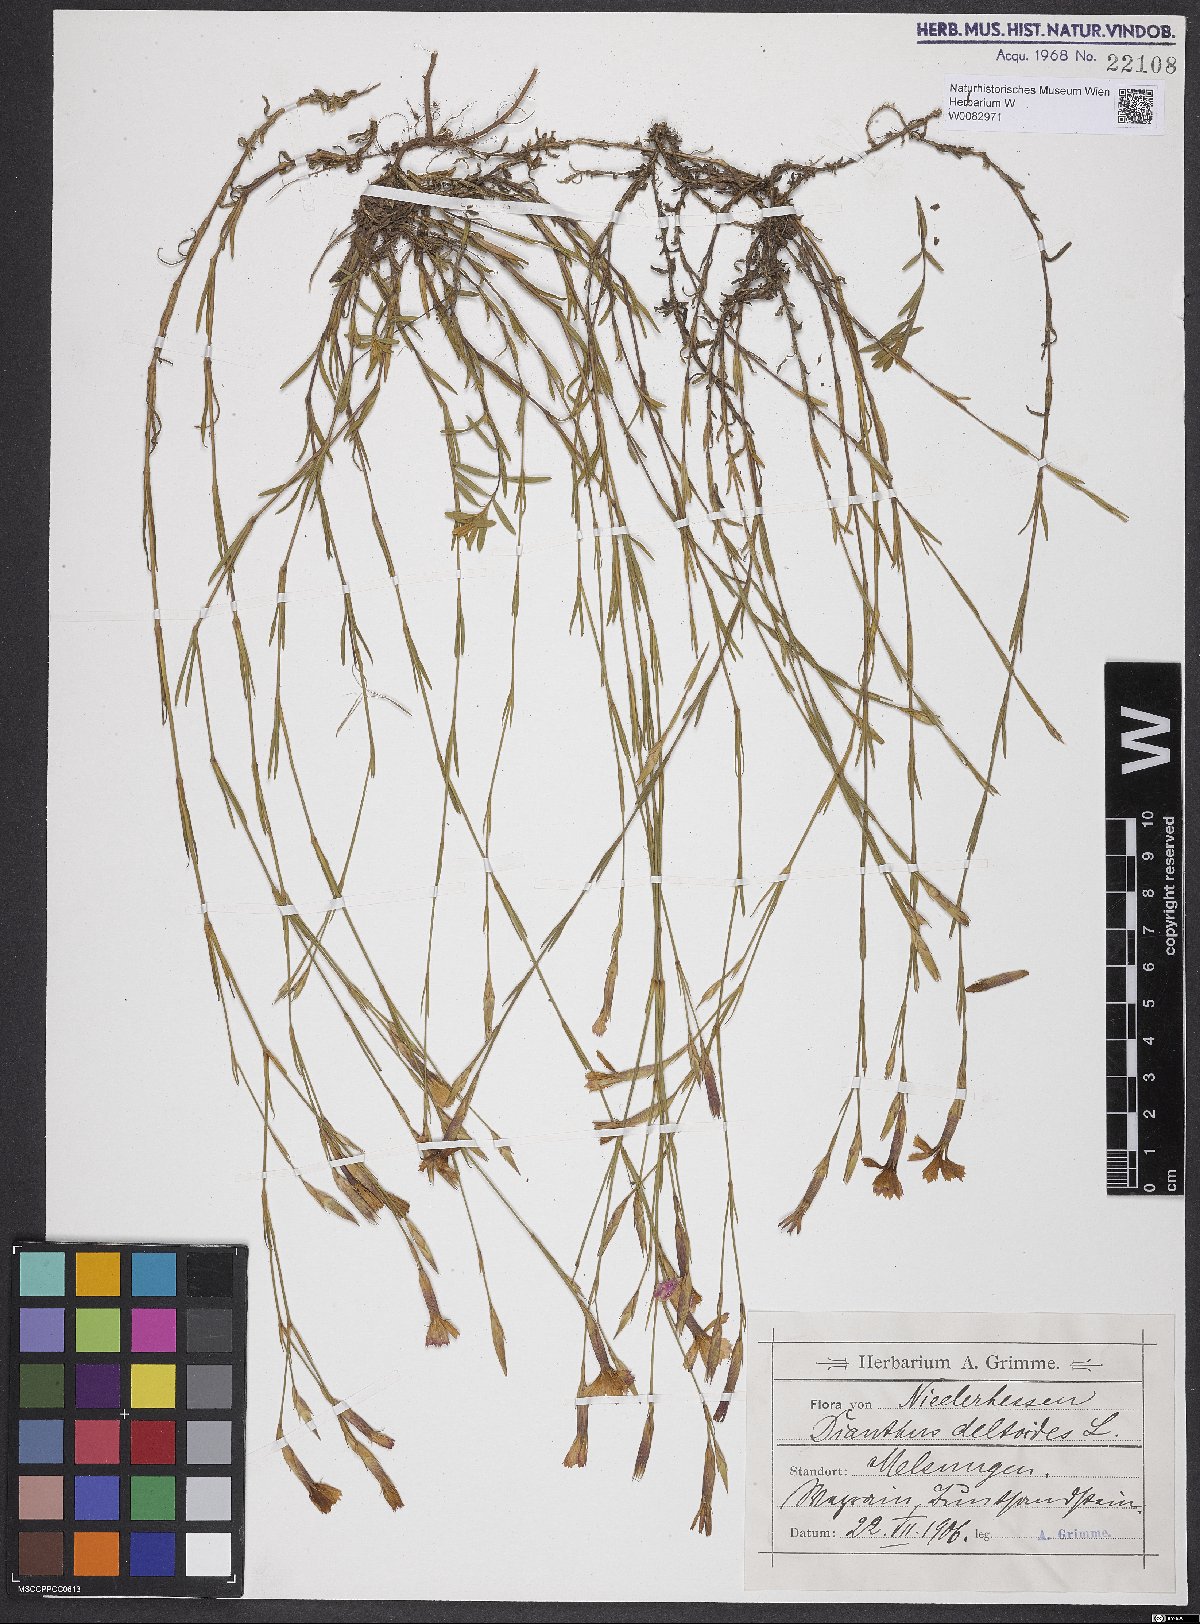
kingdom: Plantae
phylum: Tracheophyta
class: Magnoliopsida
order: Caryophyllales
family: Caryophyllaceae
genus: Dianthus
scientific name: Dianthus deltoides
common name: Maiden pink
